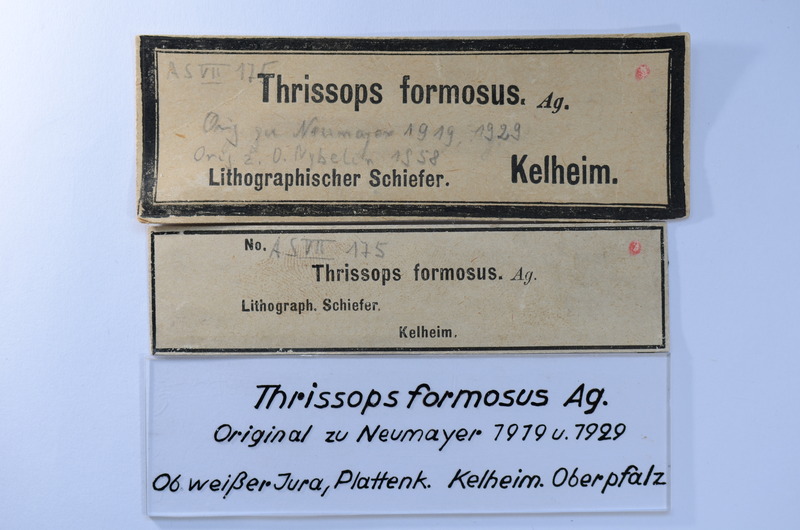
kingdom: Animalia
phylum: Chordata
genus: Thrissops
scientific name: Thrissops formosus
